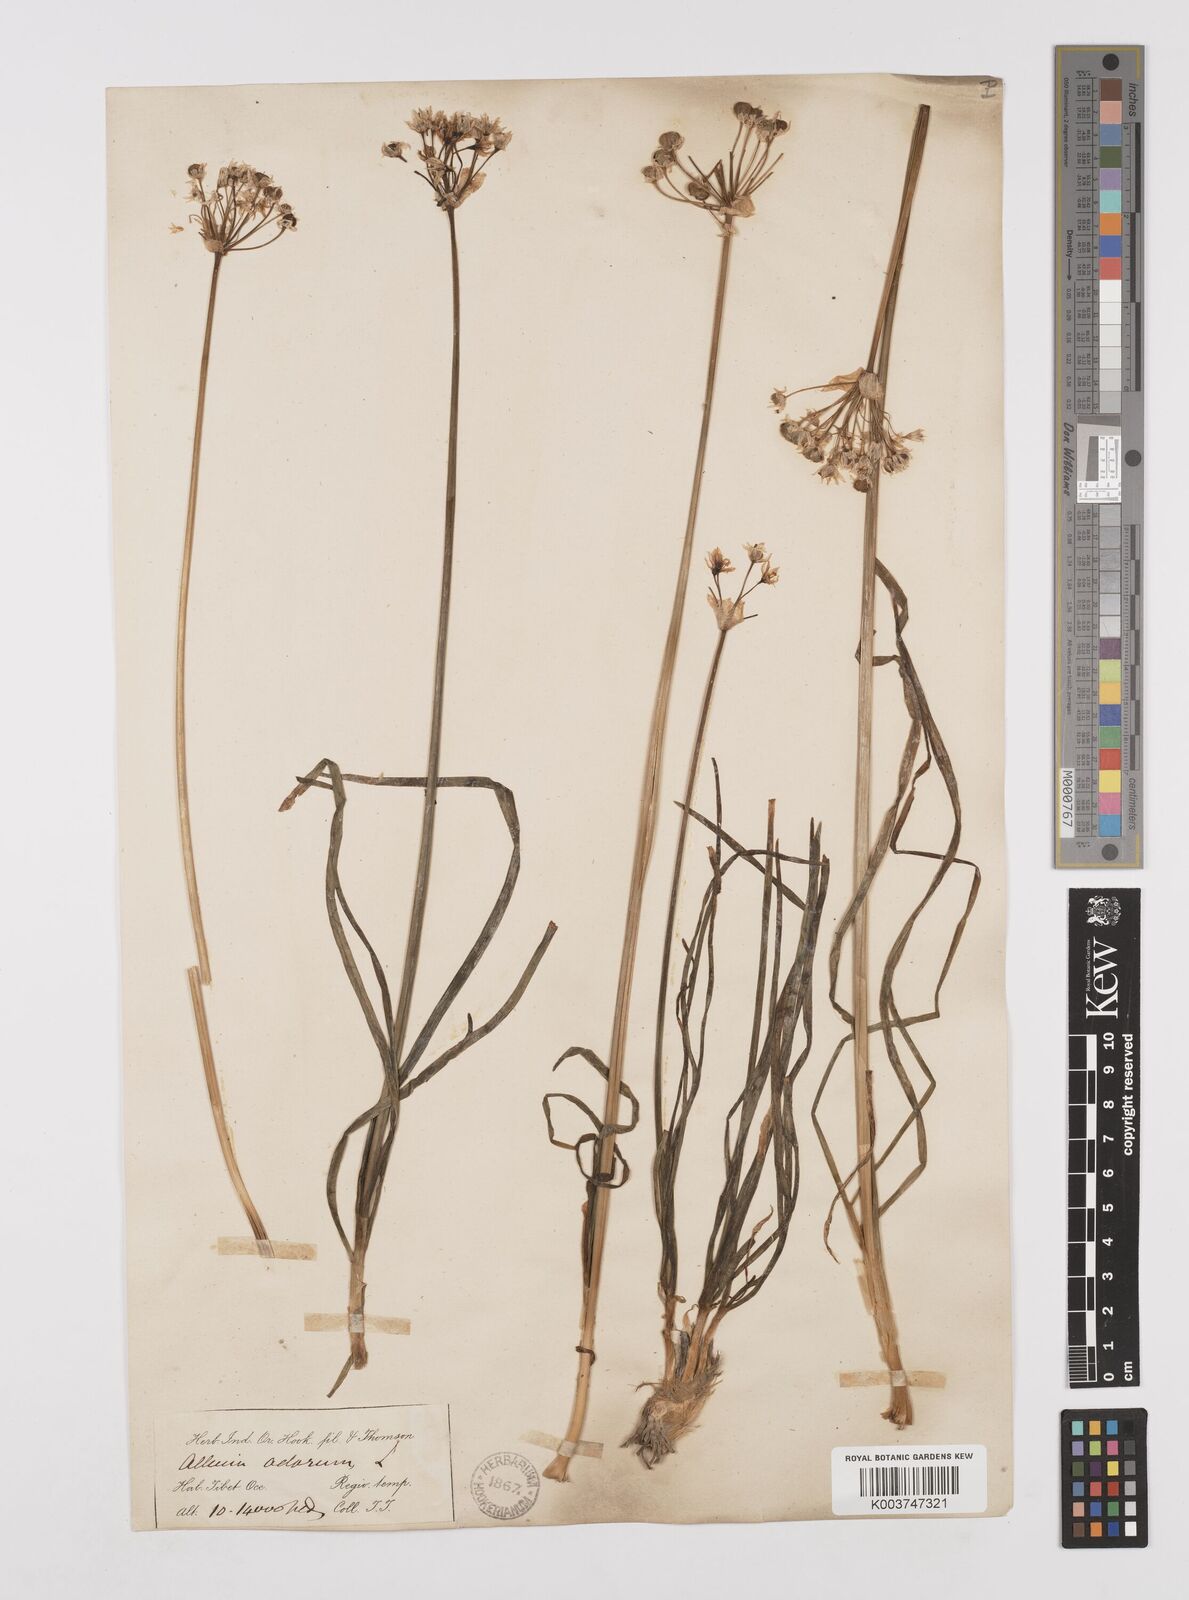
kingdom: Plantae
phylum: Tracheophyta
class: Liliopsida
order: Asparagales
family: Amaryllidaceae
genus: Allium
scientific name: Allium tuberosum
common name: Chinese chives
